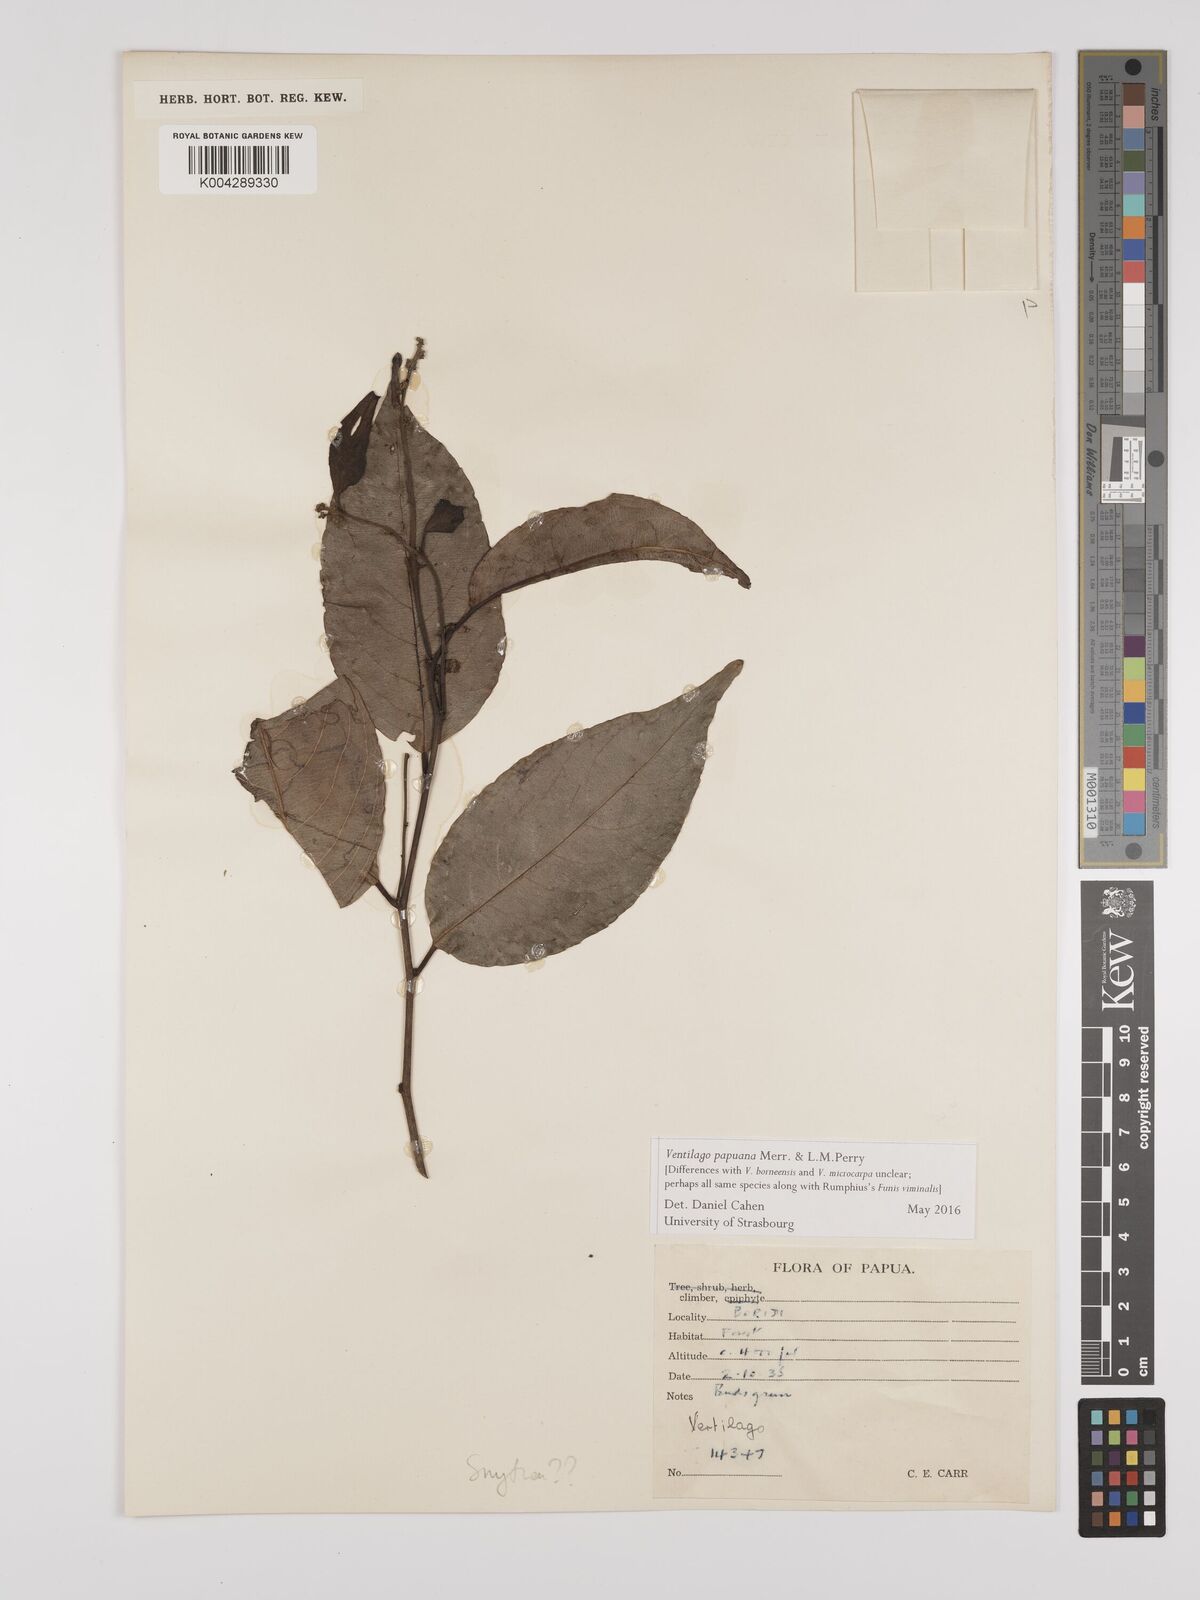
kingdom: Plantae
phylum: Tracheophyta
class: Magnoliopsida
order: Rosales
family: Rhamnaceae
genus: Ventilago
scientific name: Ventilago papuana
